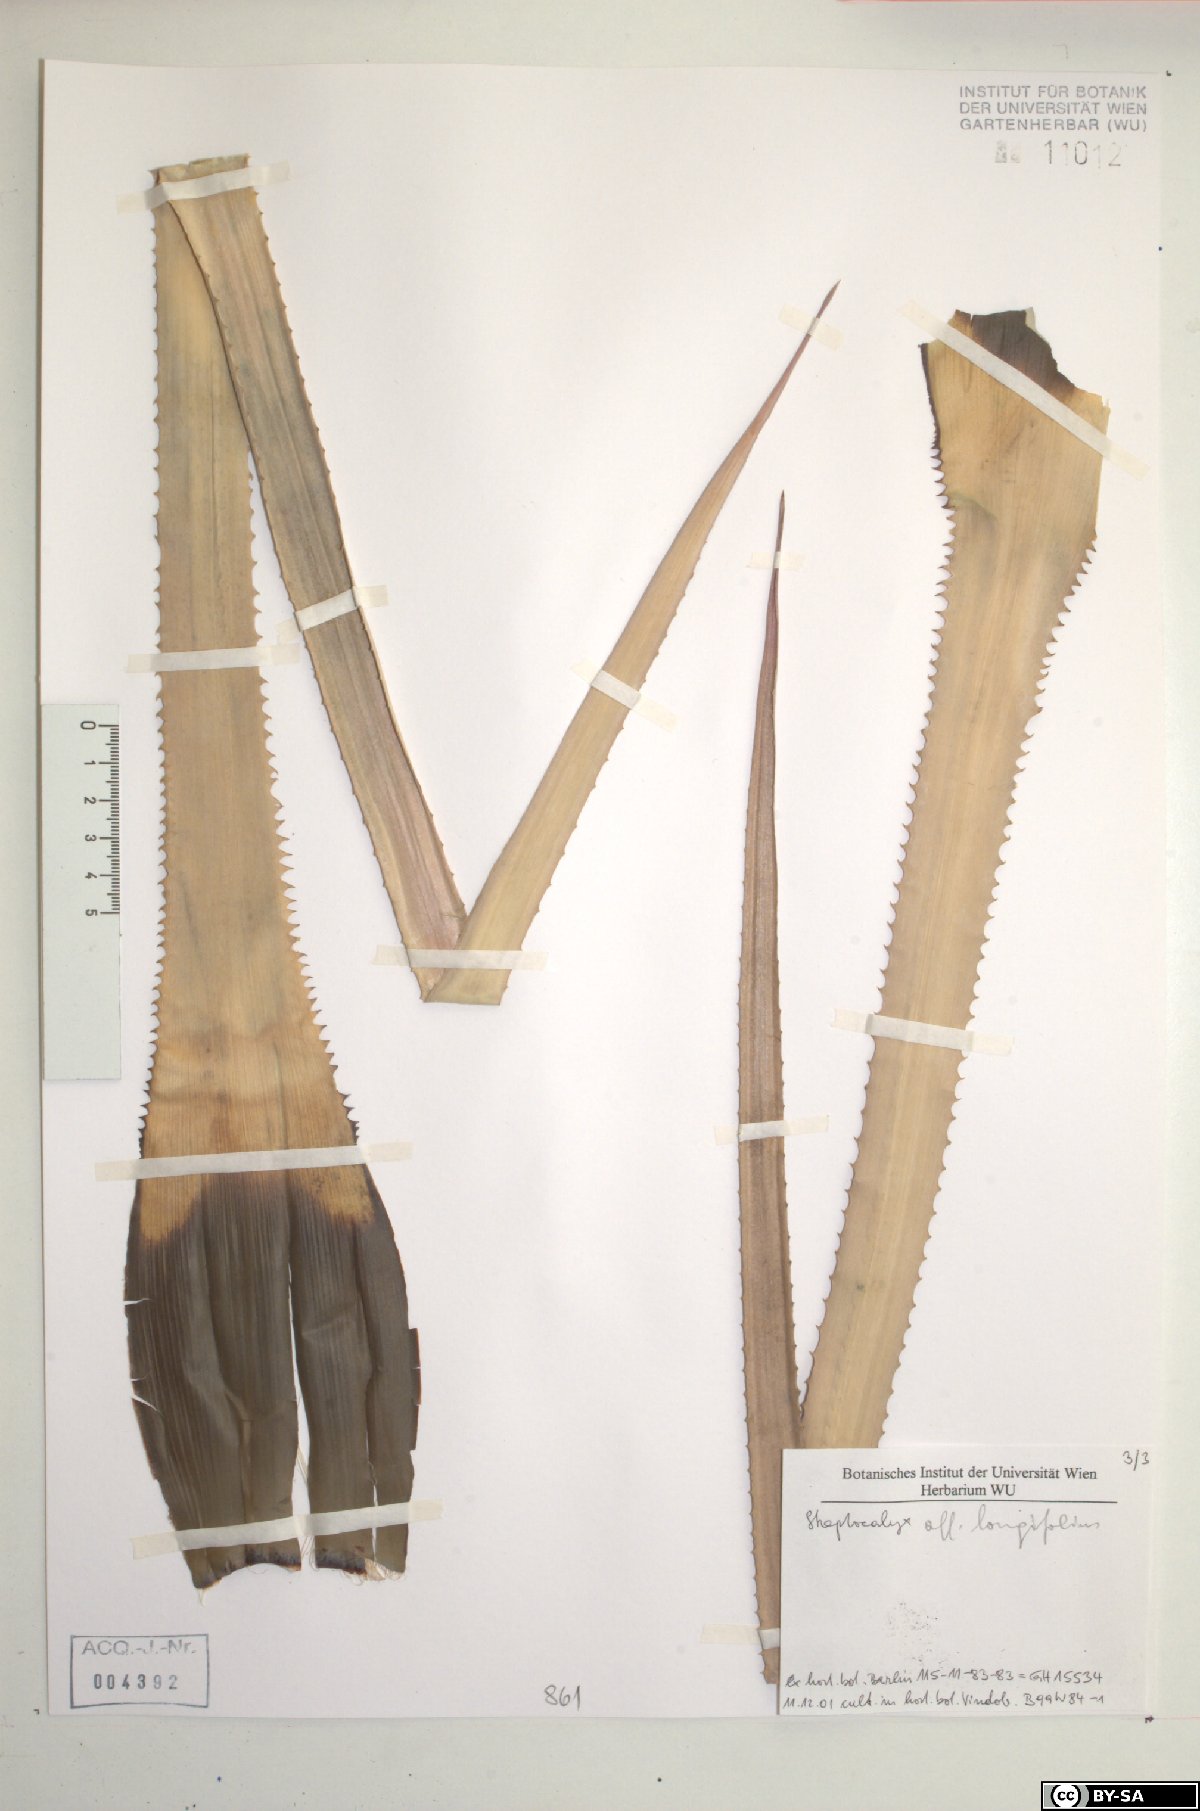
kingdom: Plantae
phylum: Tracheophyta
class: Liliopsida
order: Poales
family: Bromeliaceae
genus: Aechmea
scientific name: Aechmea longifolia
